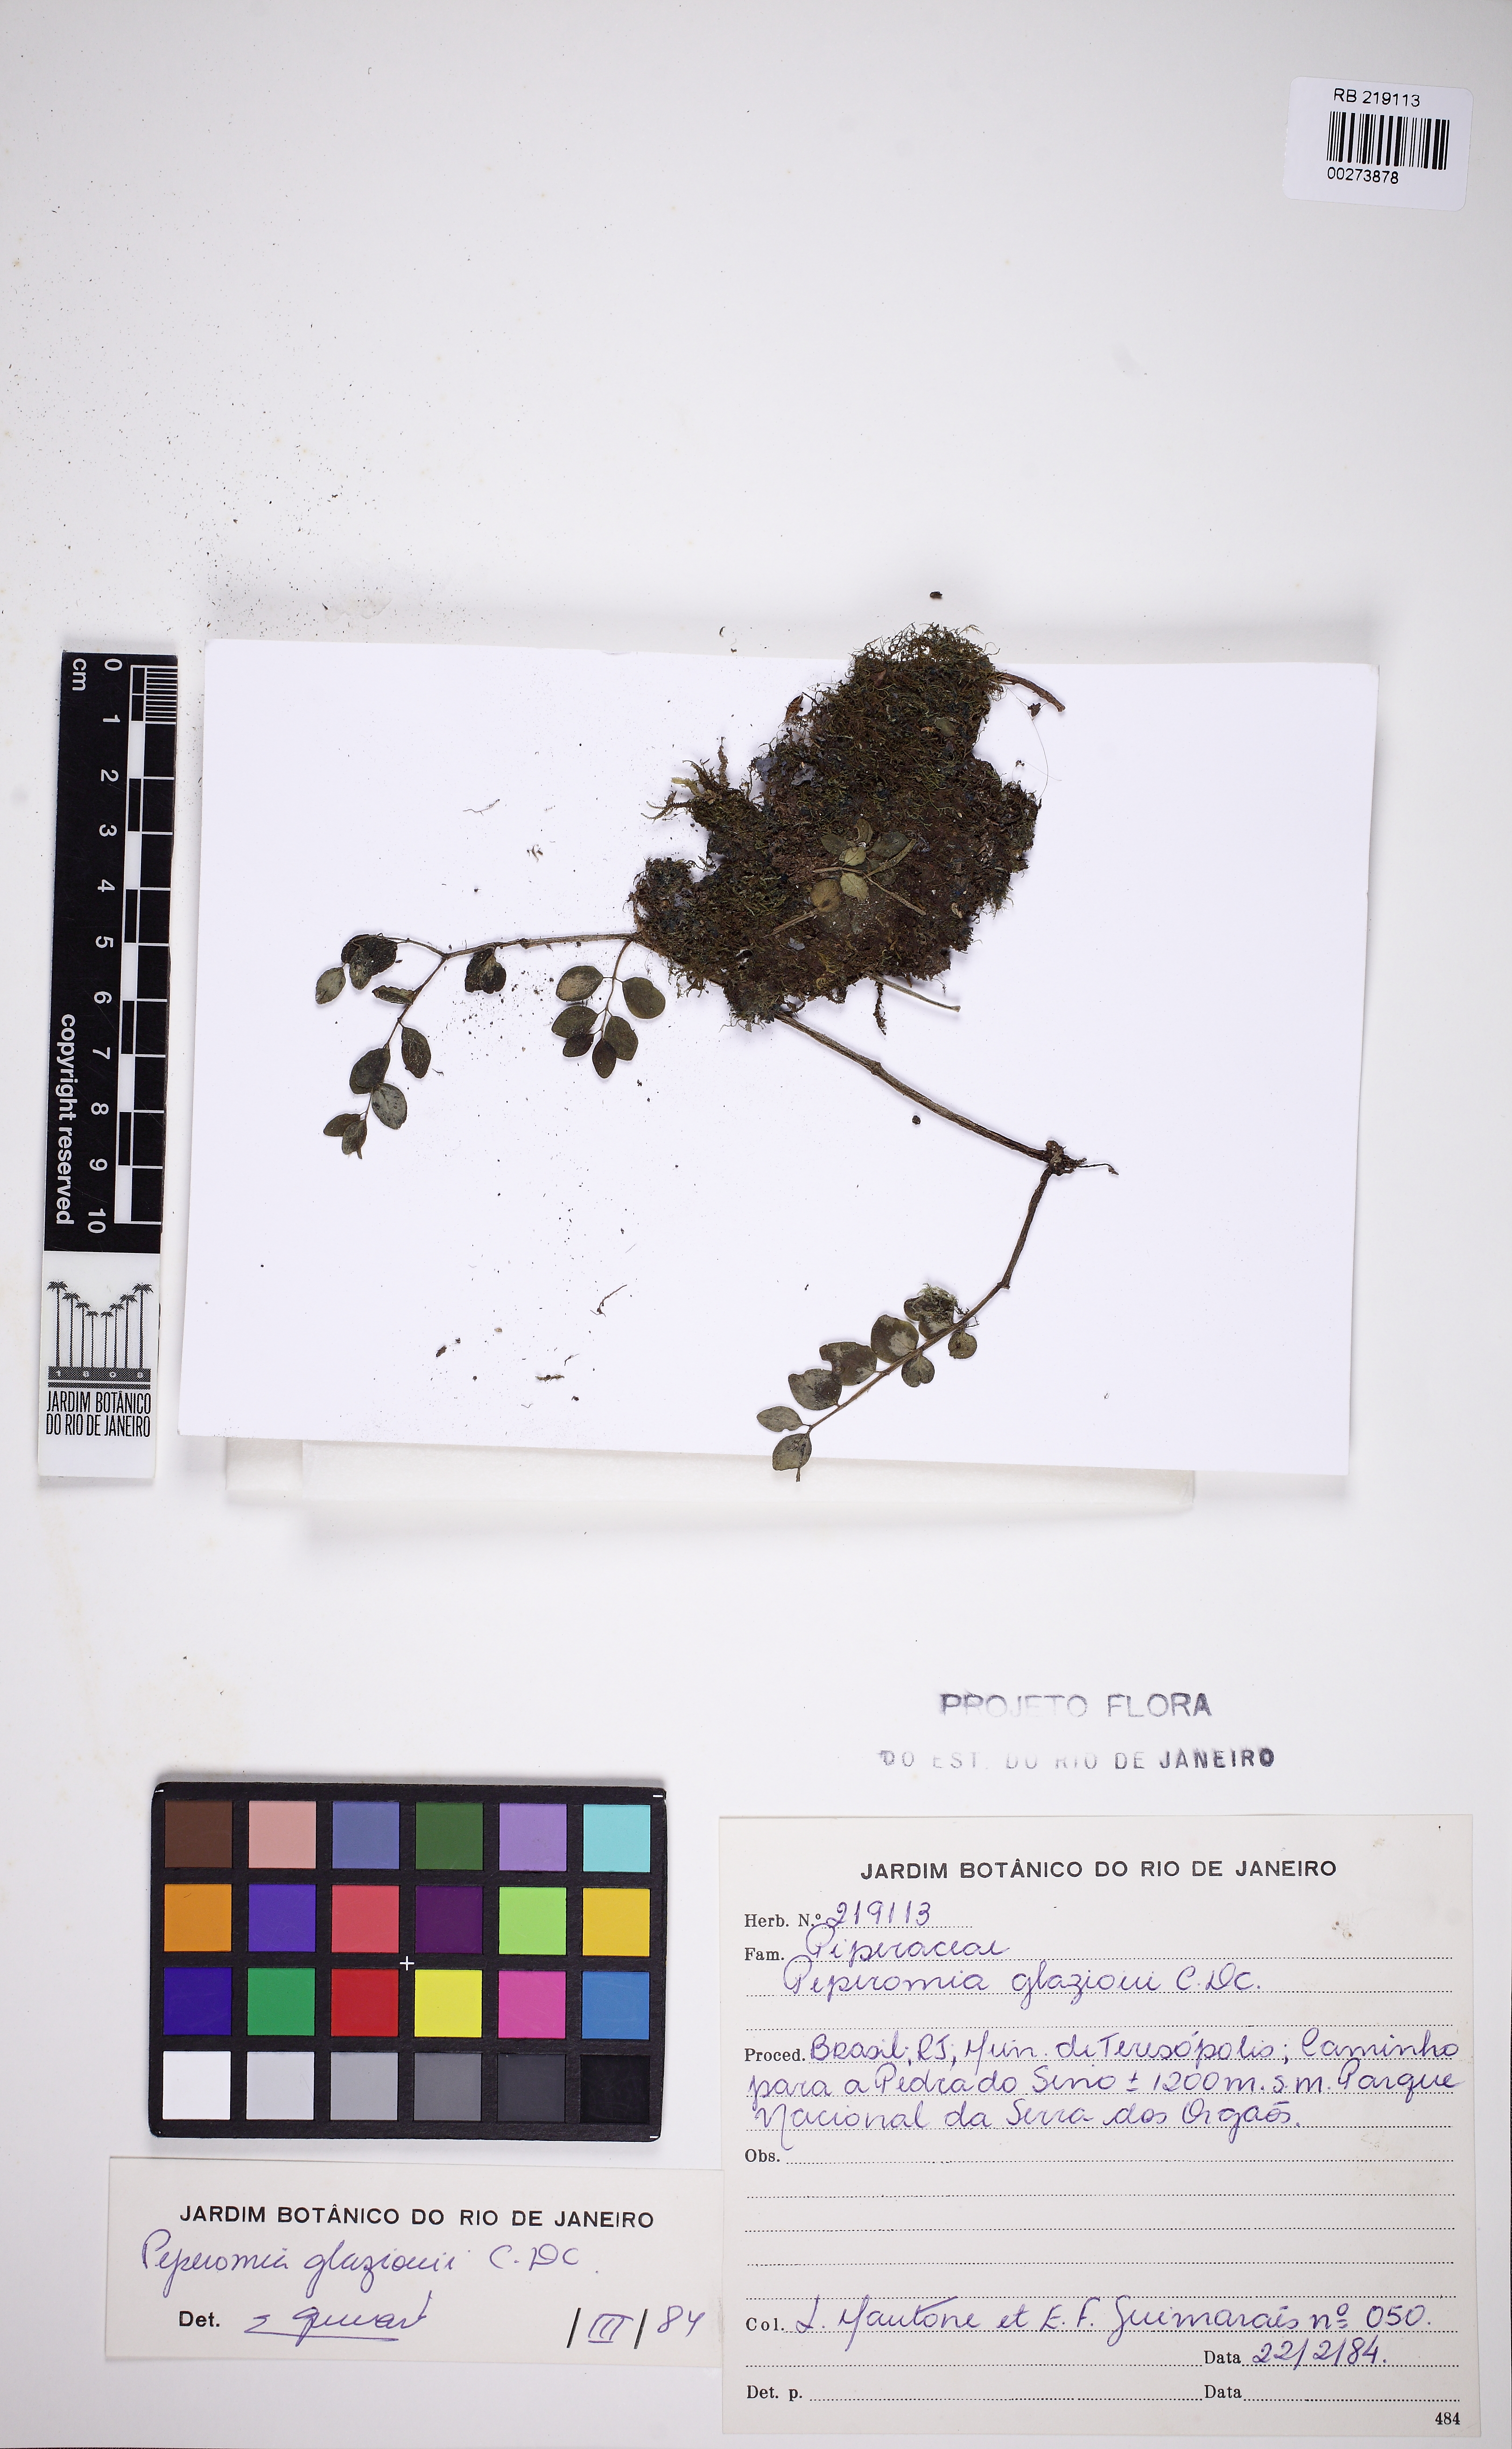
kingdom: Plantae
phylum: Tracheophyta
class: Magnoliopsida
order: Piperales
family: Piperaceae
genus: Peperomia
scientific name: Peperomia glazioui
